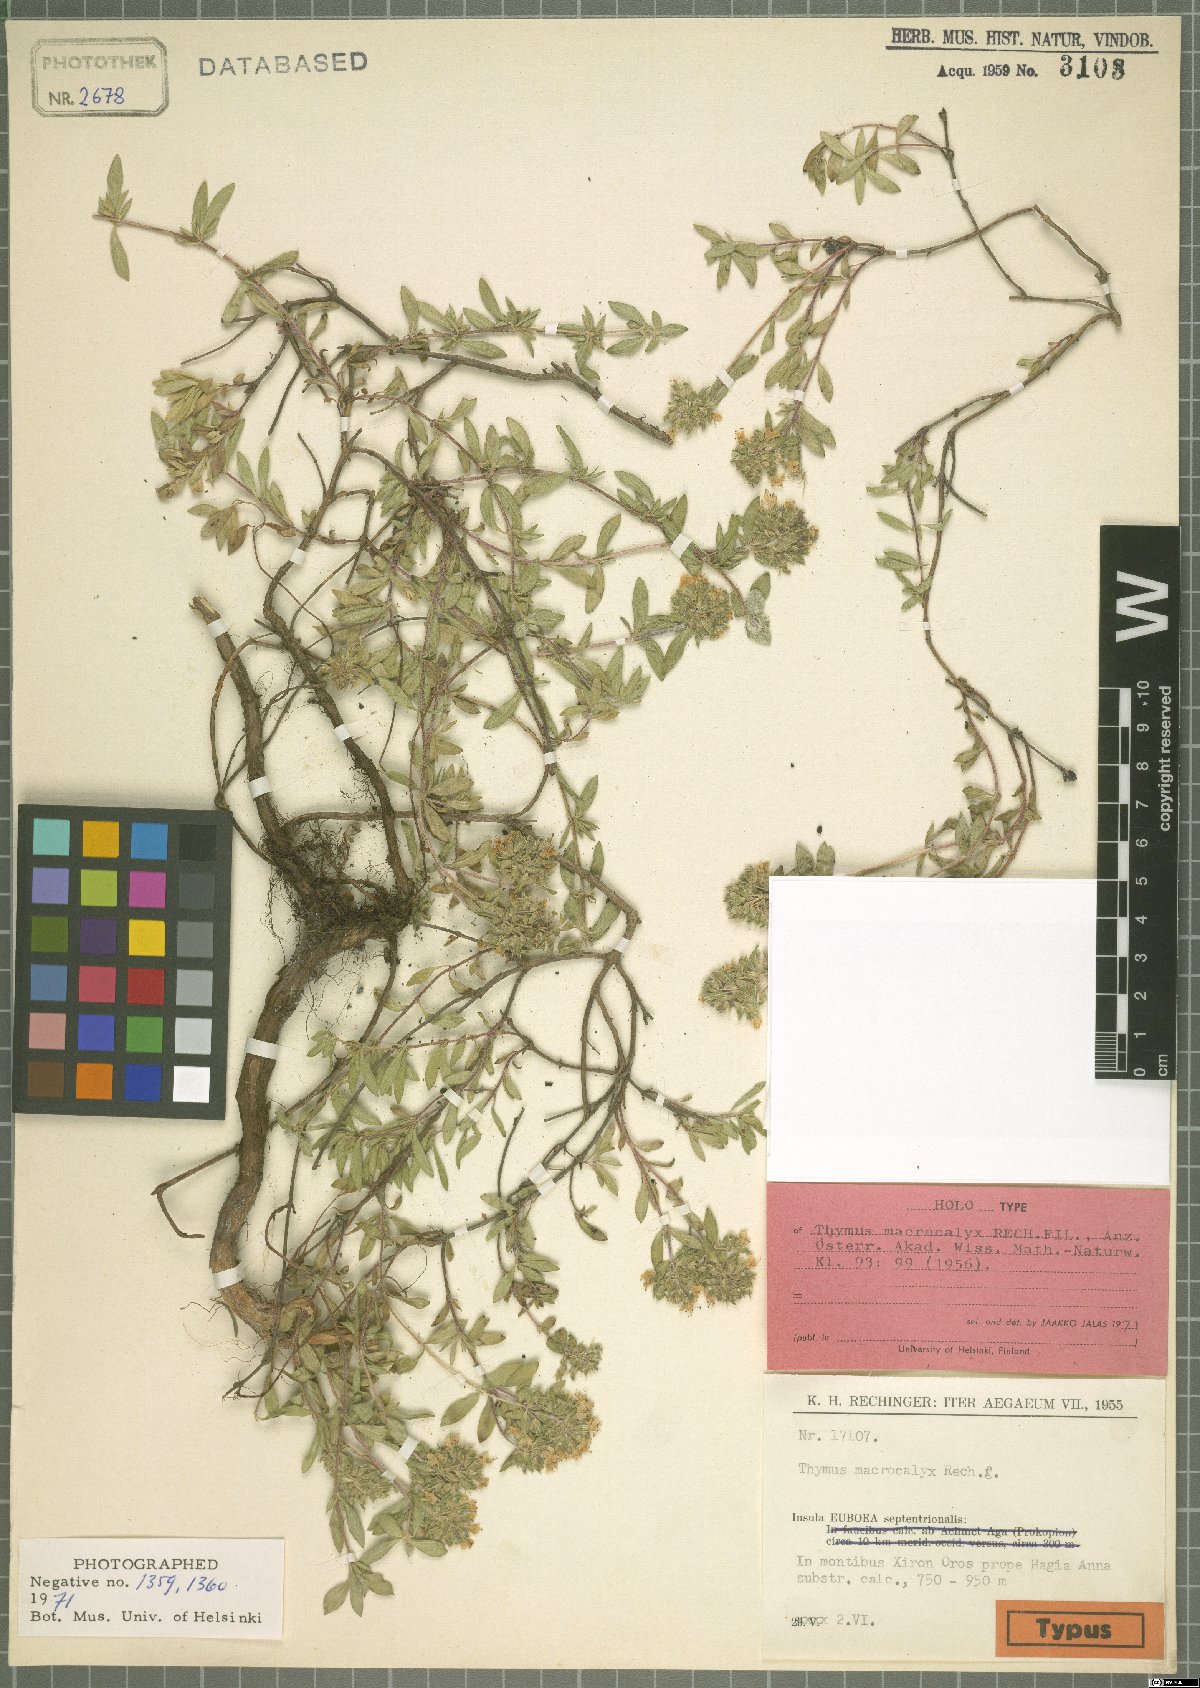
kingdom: Plantae
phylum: Tracheophyta
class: Magnoliopsida
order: Lamiales
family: Lamiaceae
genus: Thymus
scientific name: Thymus macrocalyx
